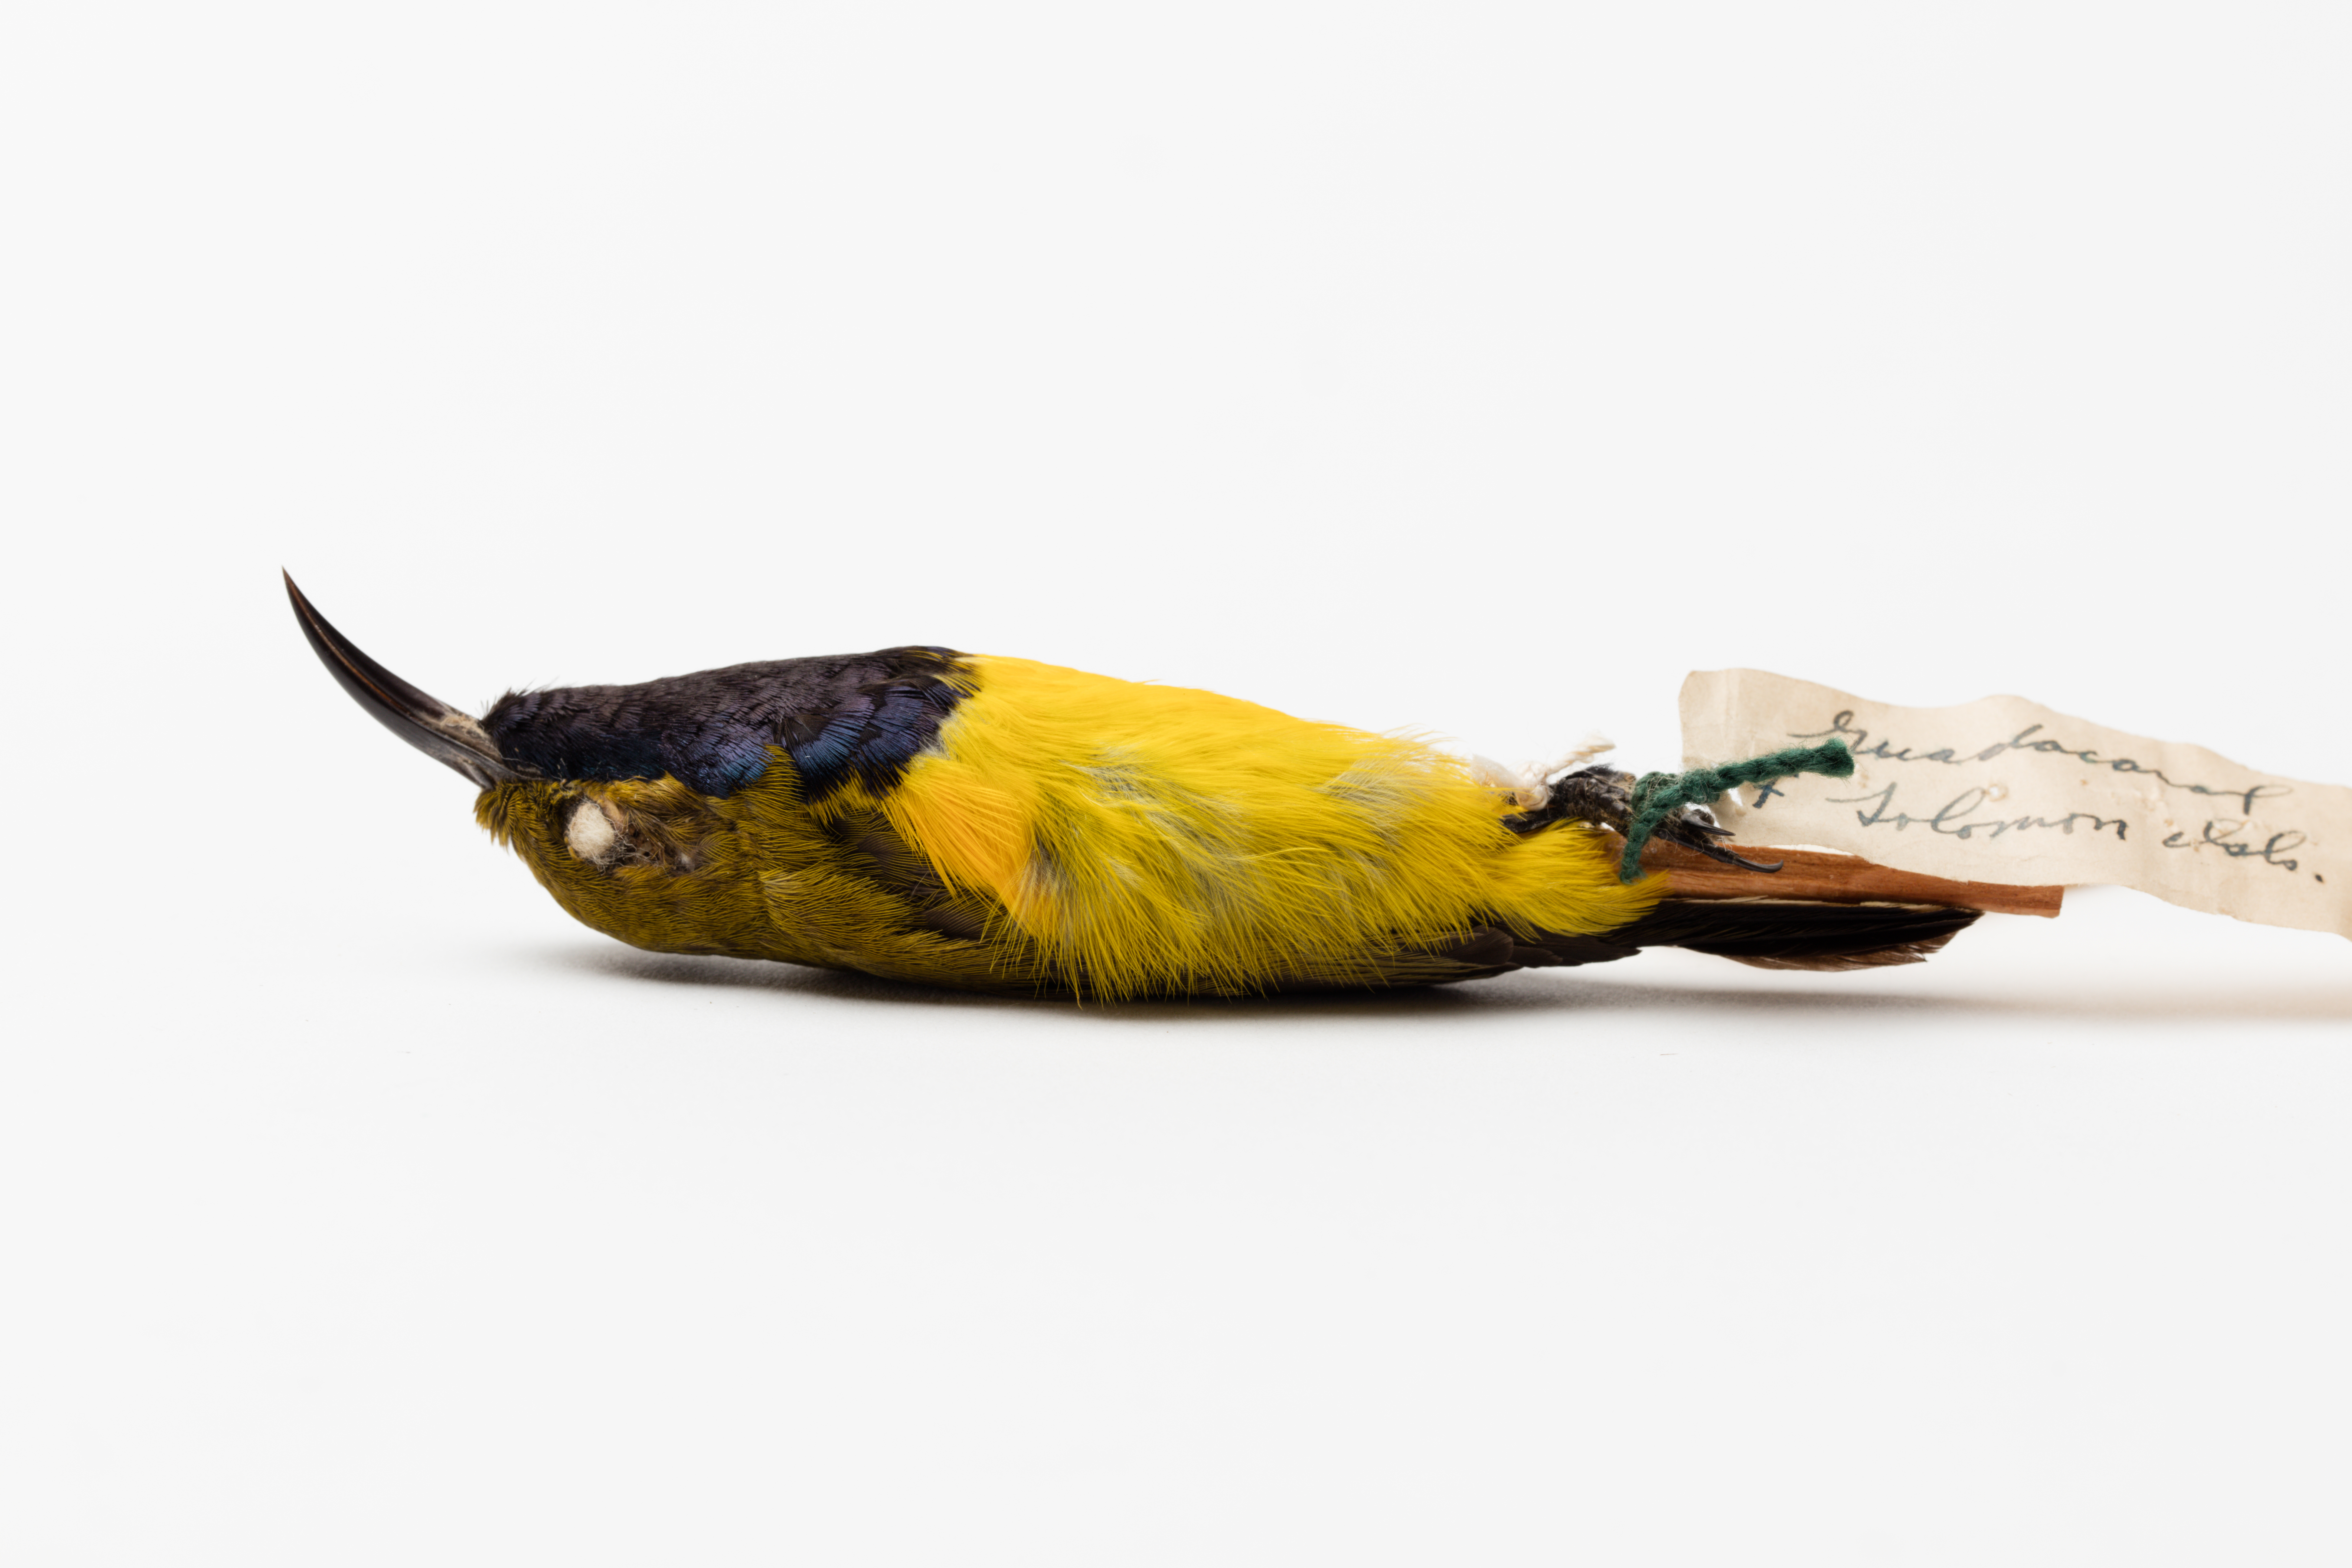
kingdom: Animalia
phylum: Chordata
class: Aves
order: Passeriformes
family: Nectariniidae
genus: Cinnyris
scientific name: Cinnyris jugularis
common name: Olive-backed sunbird
